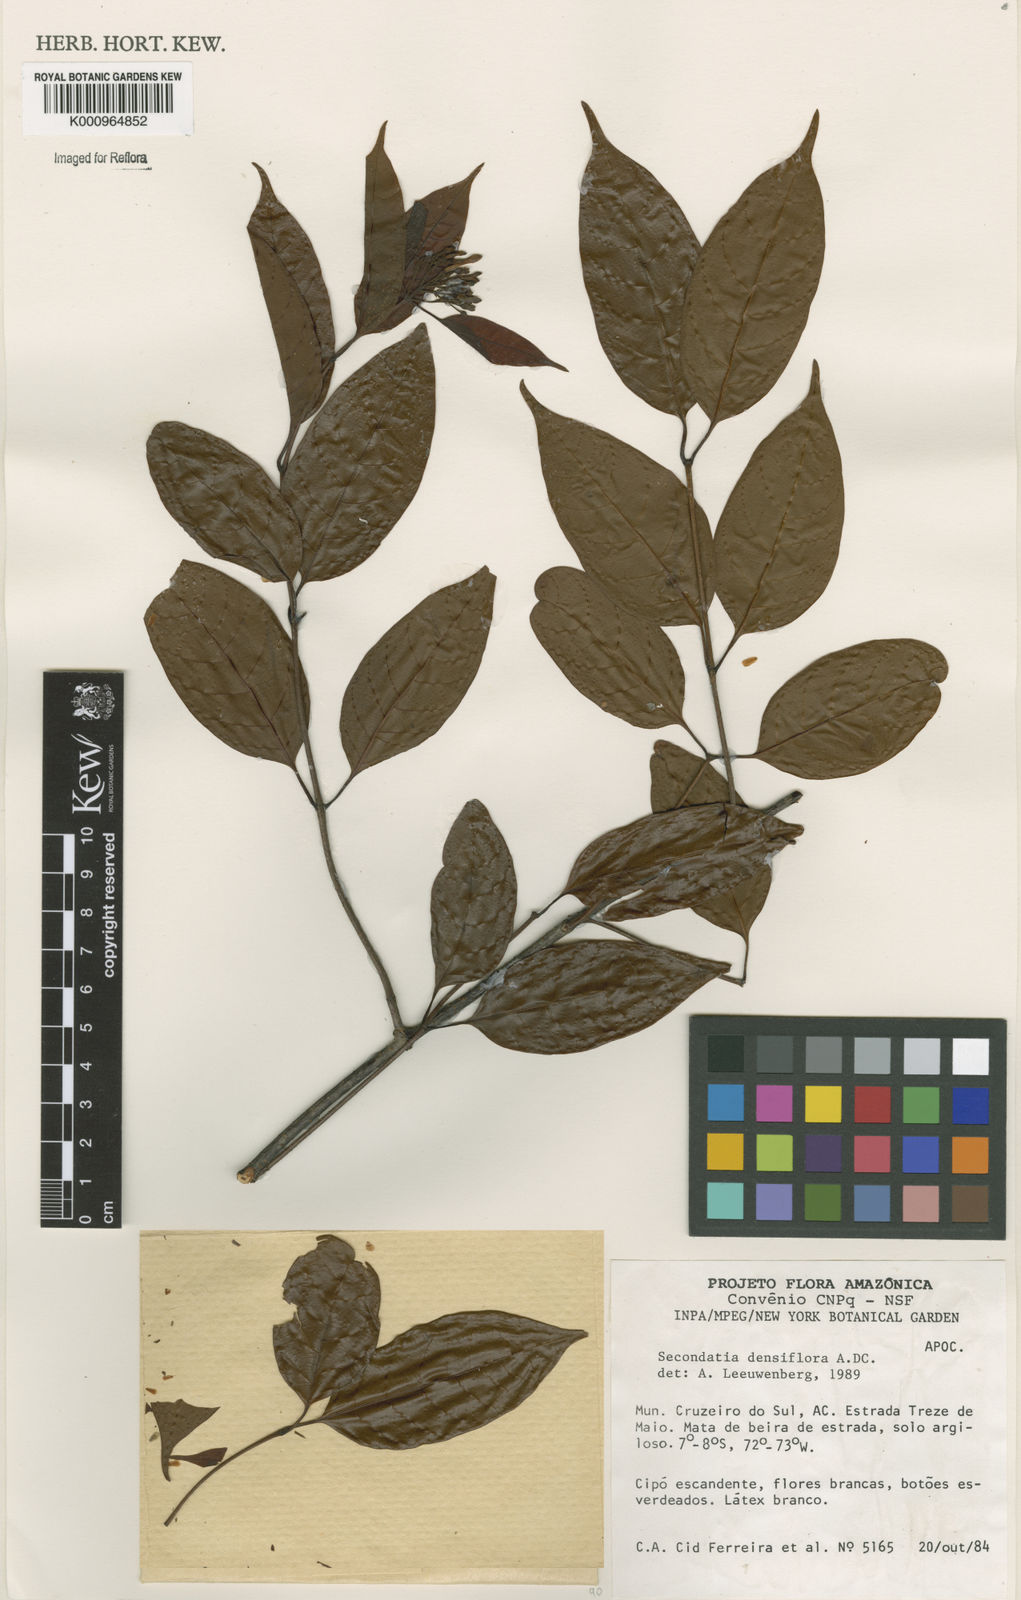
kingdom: Plantae
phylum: Tracheophyta
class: Magnoliopsida
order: Gentianales
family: Apocynaceae
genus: Secondatia
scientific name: Secondatia densiflora
